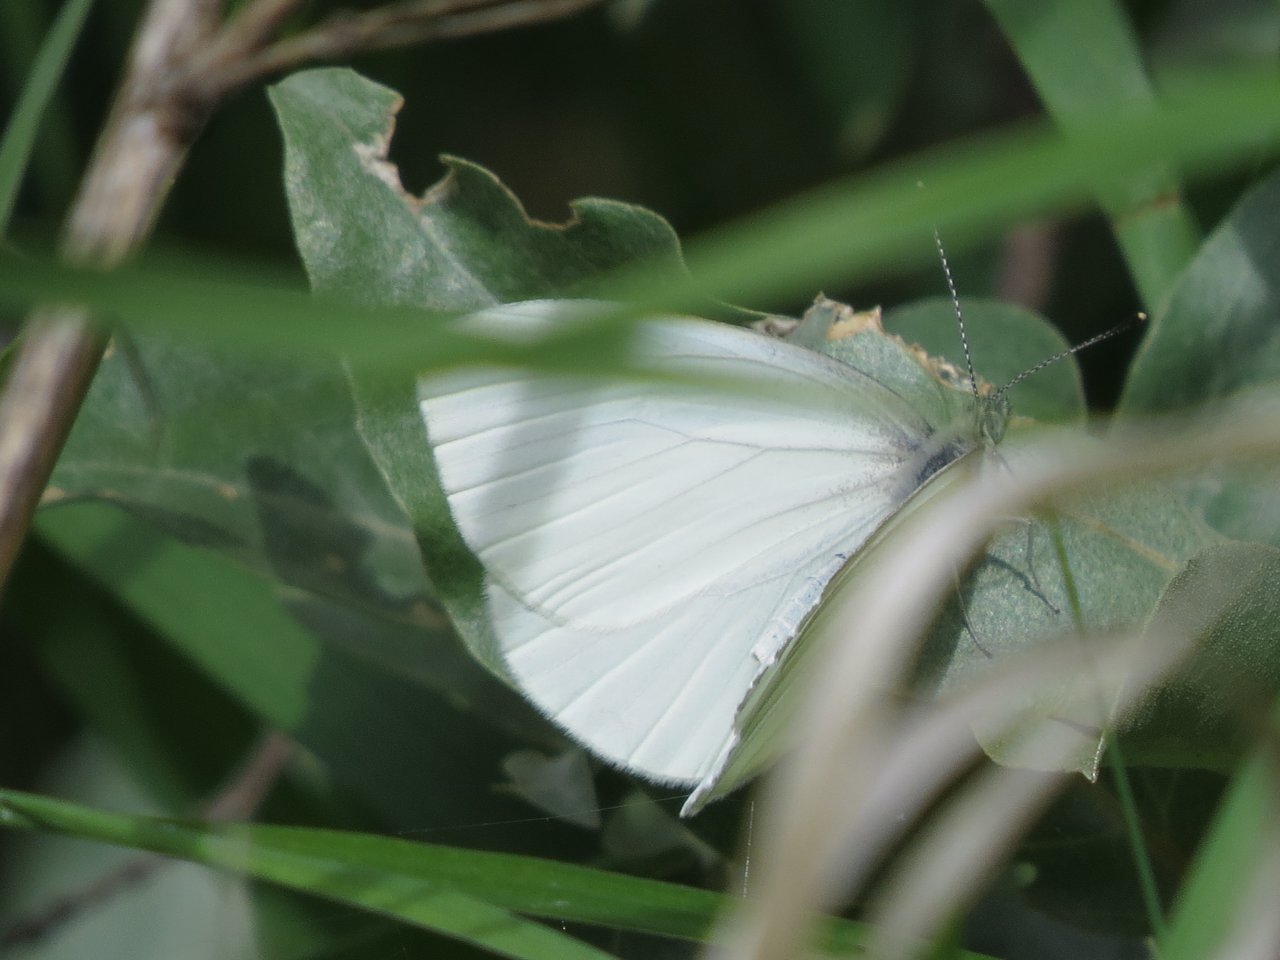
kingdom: Animalia
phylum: Arthropoda
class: Insecta
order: Lepidoptera
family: Pieridae
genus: Pieris
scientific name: Pieris oleracea
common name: Mustard White
